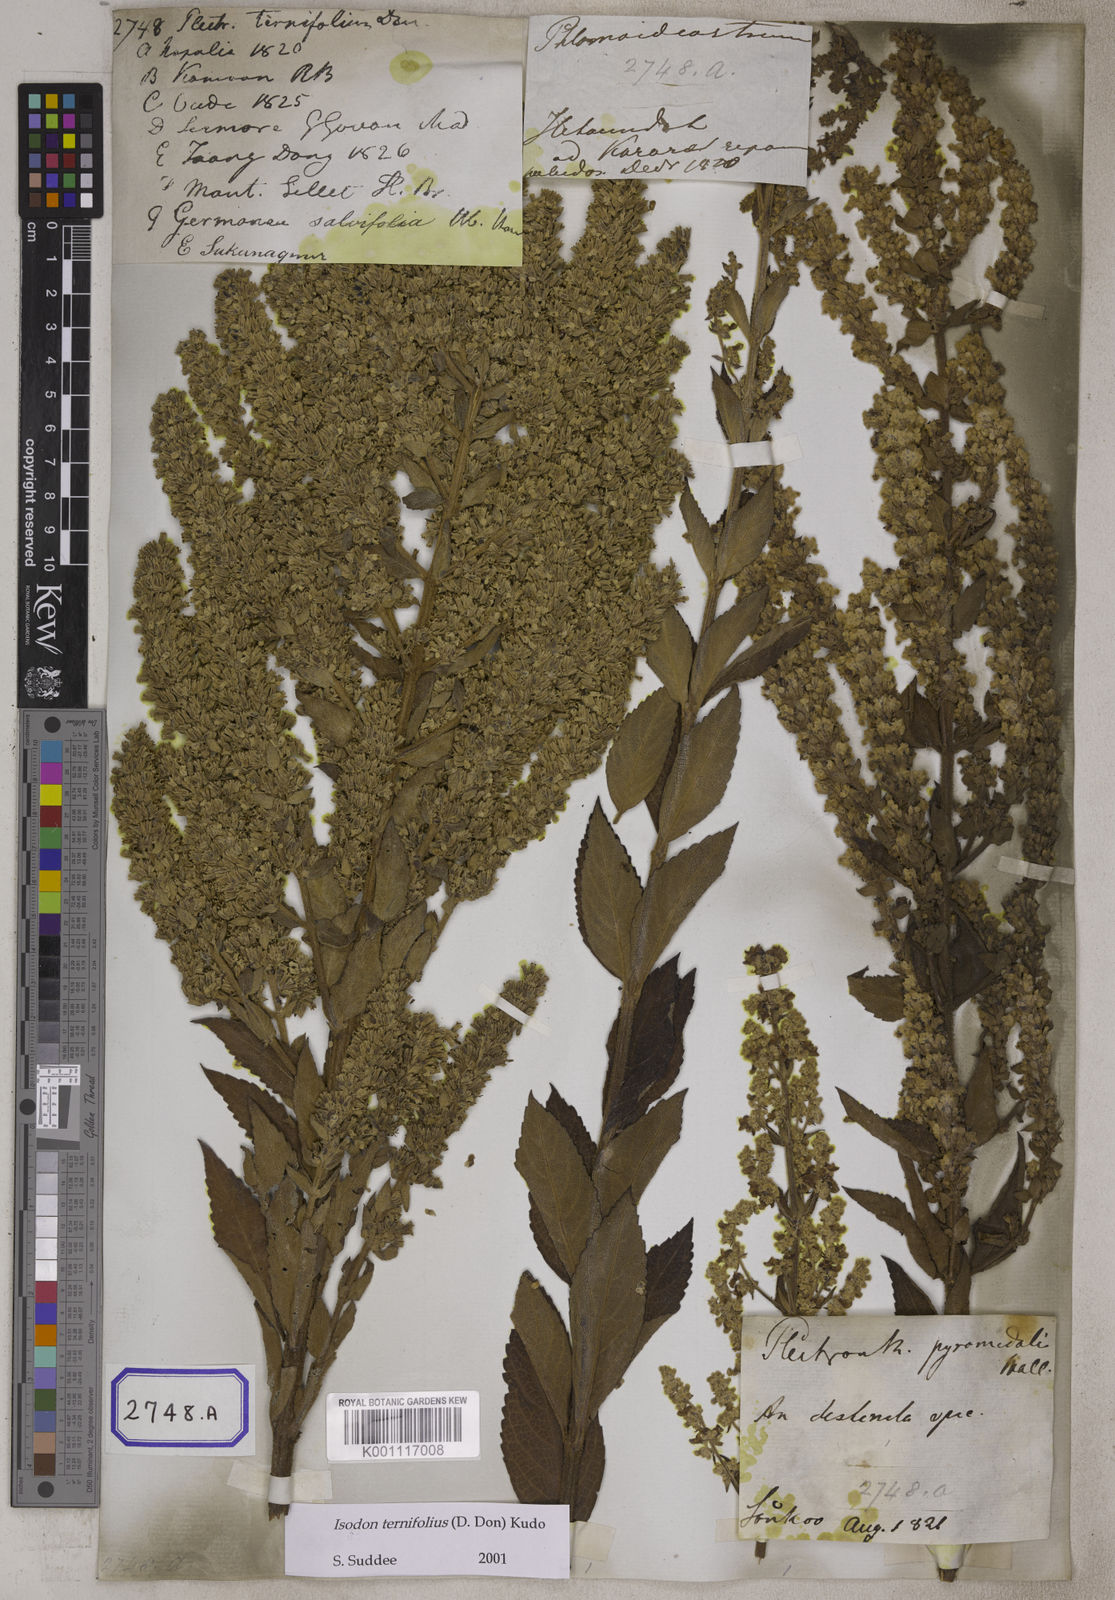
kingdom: Plantae
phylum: Tracheophyta
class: Magnoliopsida
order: Lamiales
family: Lamiaceae
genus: Isodon
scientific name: Isodon ternifolius
